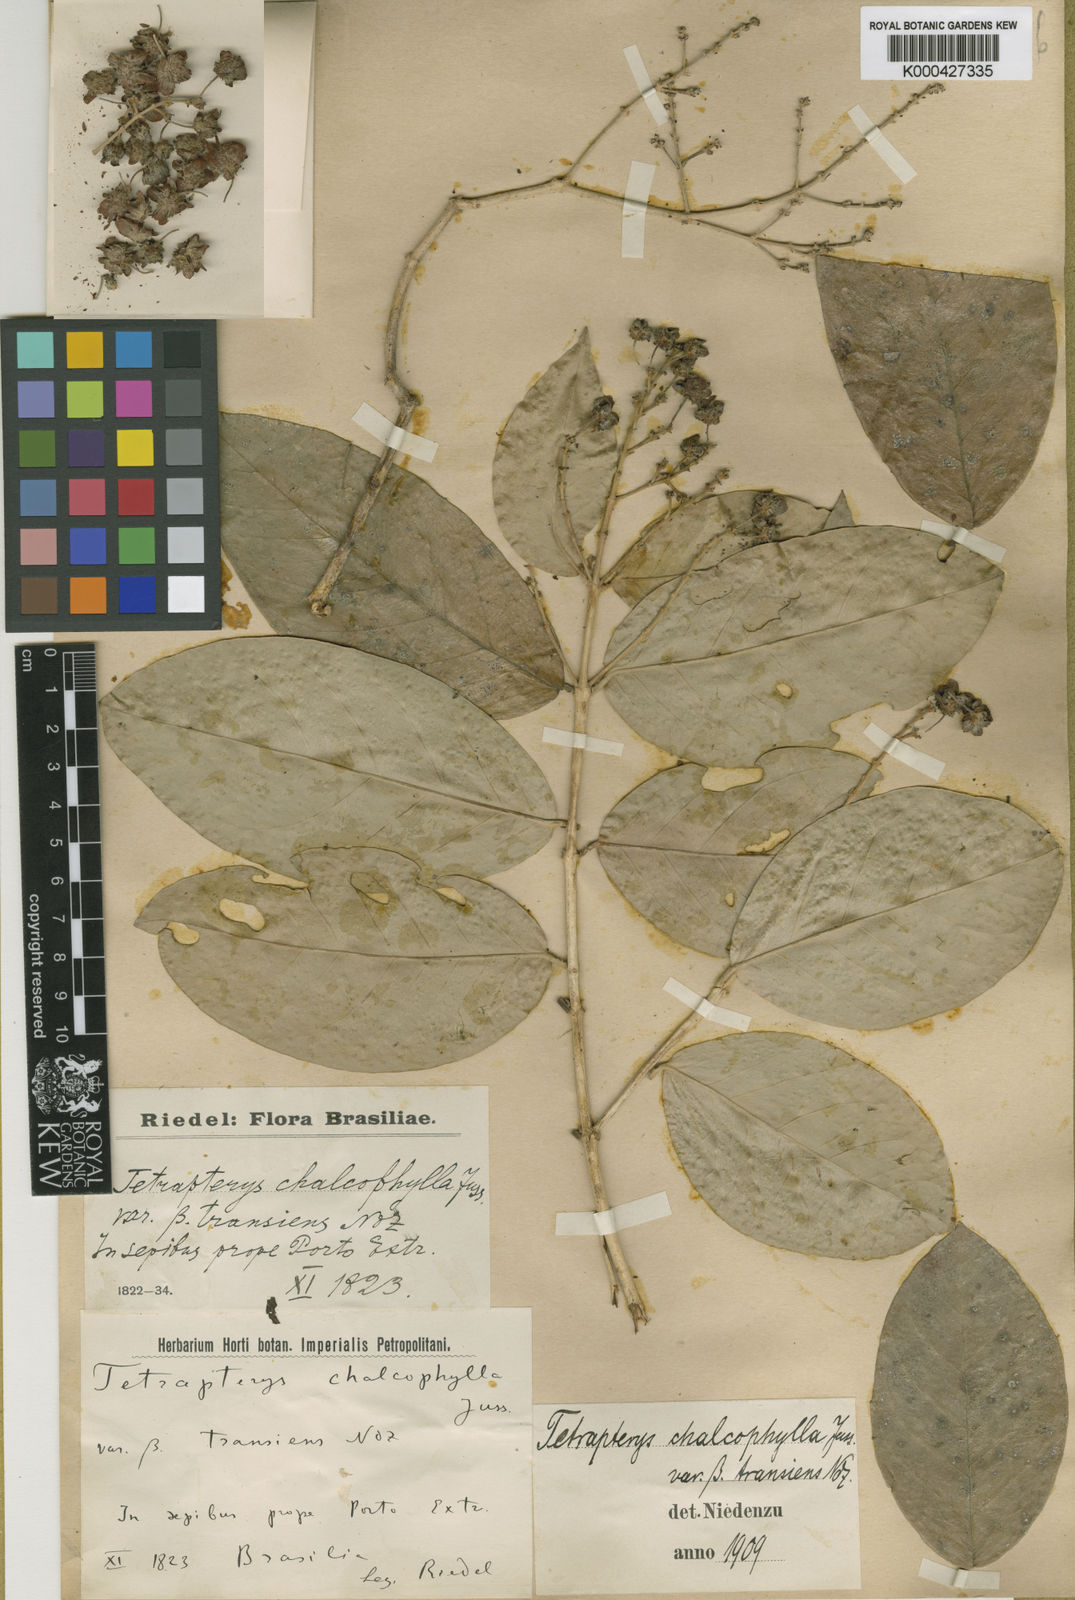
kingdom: Plantae
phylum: Tracheophyta
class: Magnoliopsida
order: Malpighiales
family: Malpighiaceae
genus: Niedenzuella
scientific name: Niedenzuella sericea
